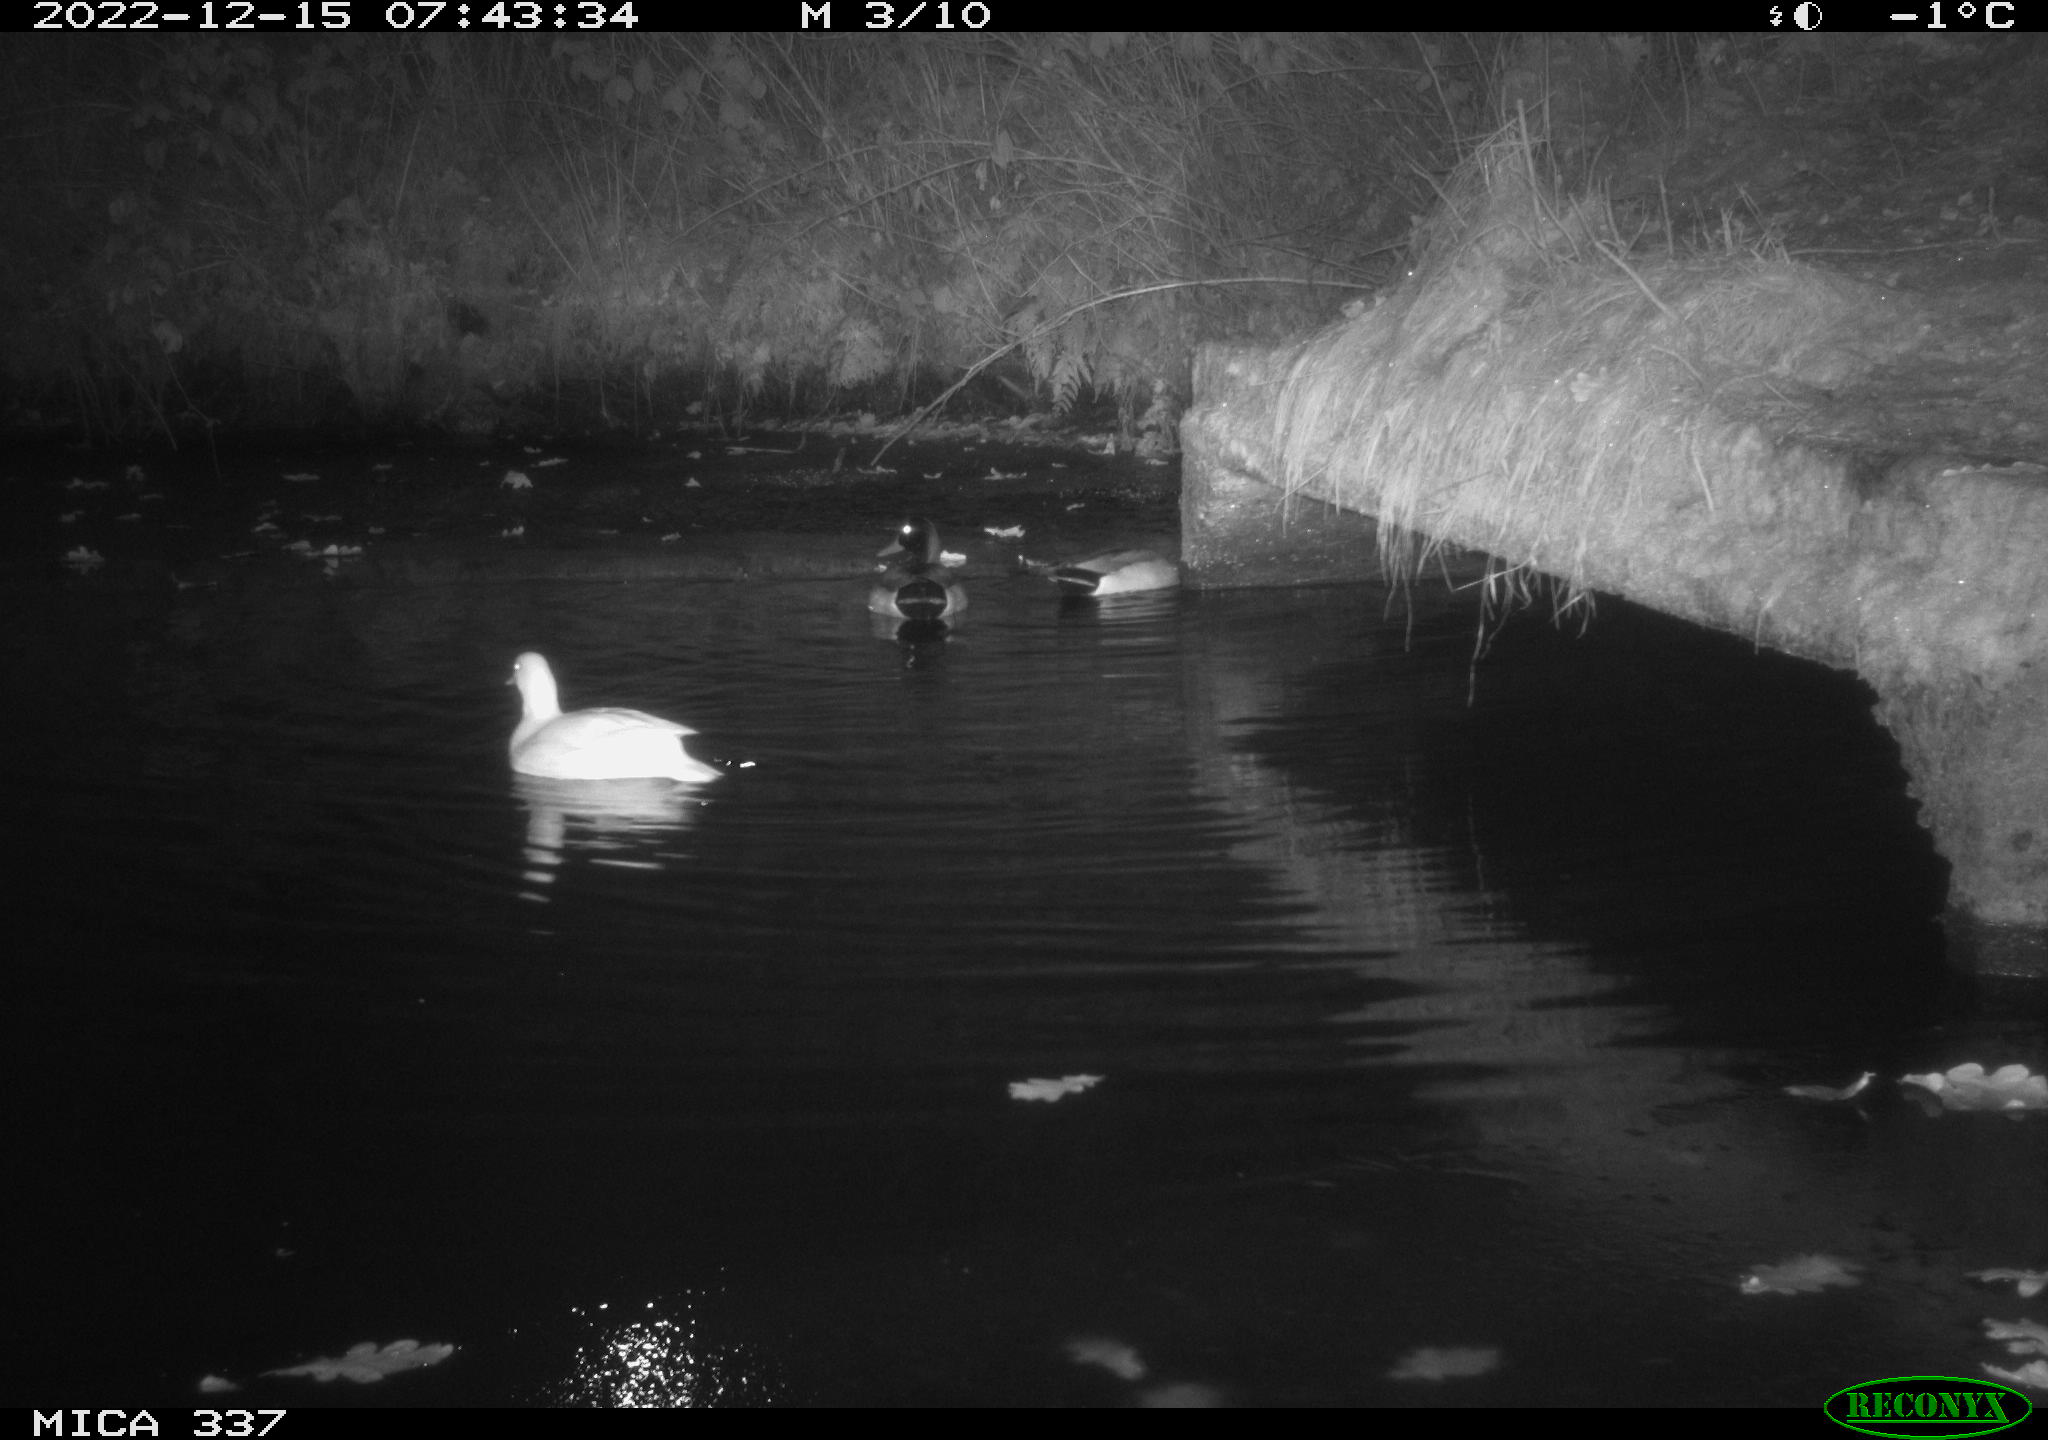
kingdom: Animalia
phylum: Chordata
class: Aves
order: Anseriformes
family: Anatidae
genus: Anas
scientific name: Anas platyrhynchos
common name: Mallard
